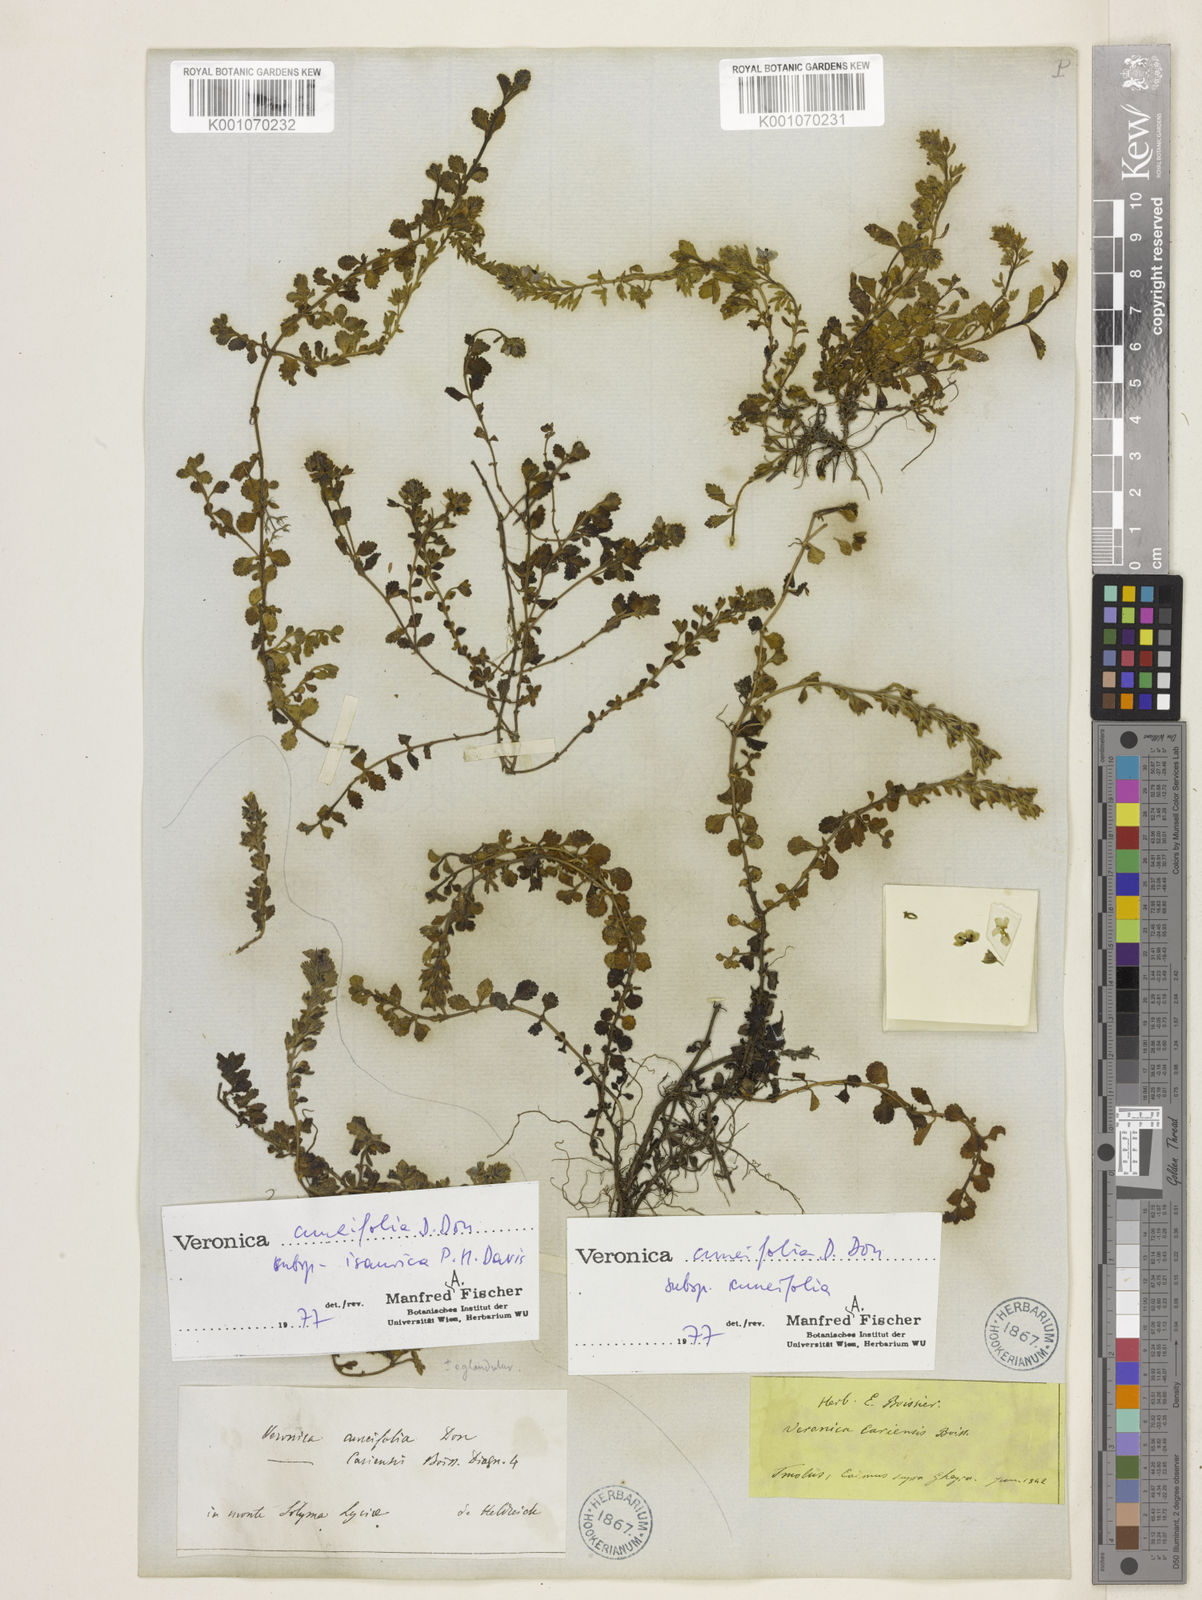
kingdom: Plantae
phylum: Tracheophyta
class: Magnoliopsida
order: Lamiales
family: Plantaginaceae
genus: Veronica
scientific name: Veronica cuneifolia
